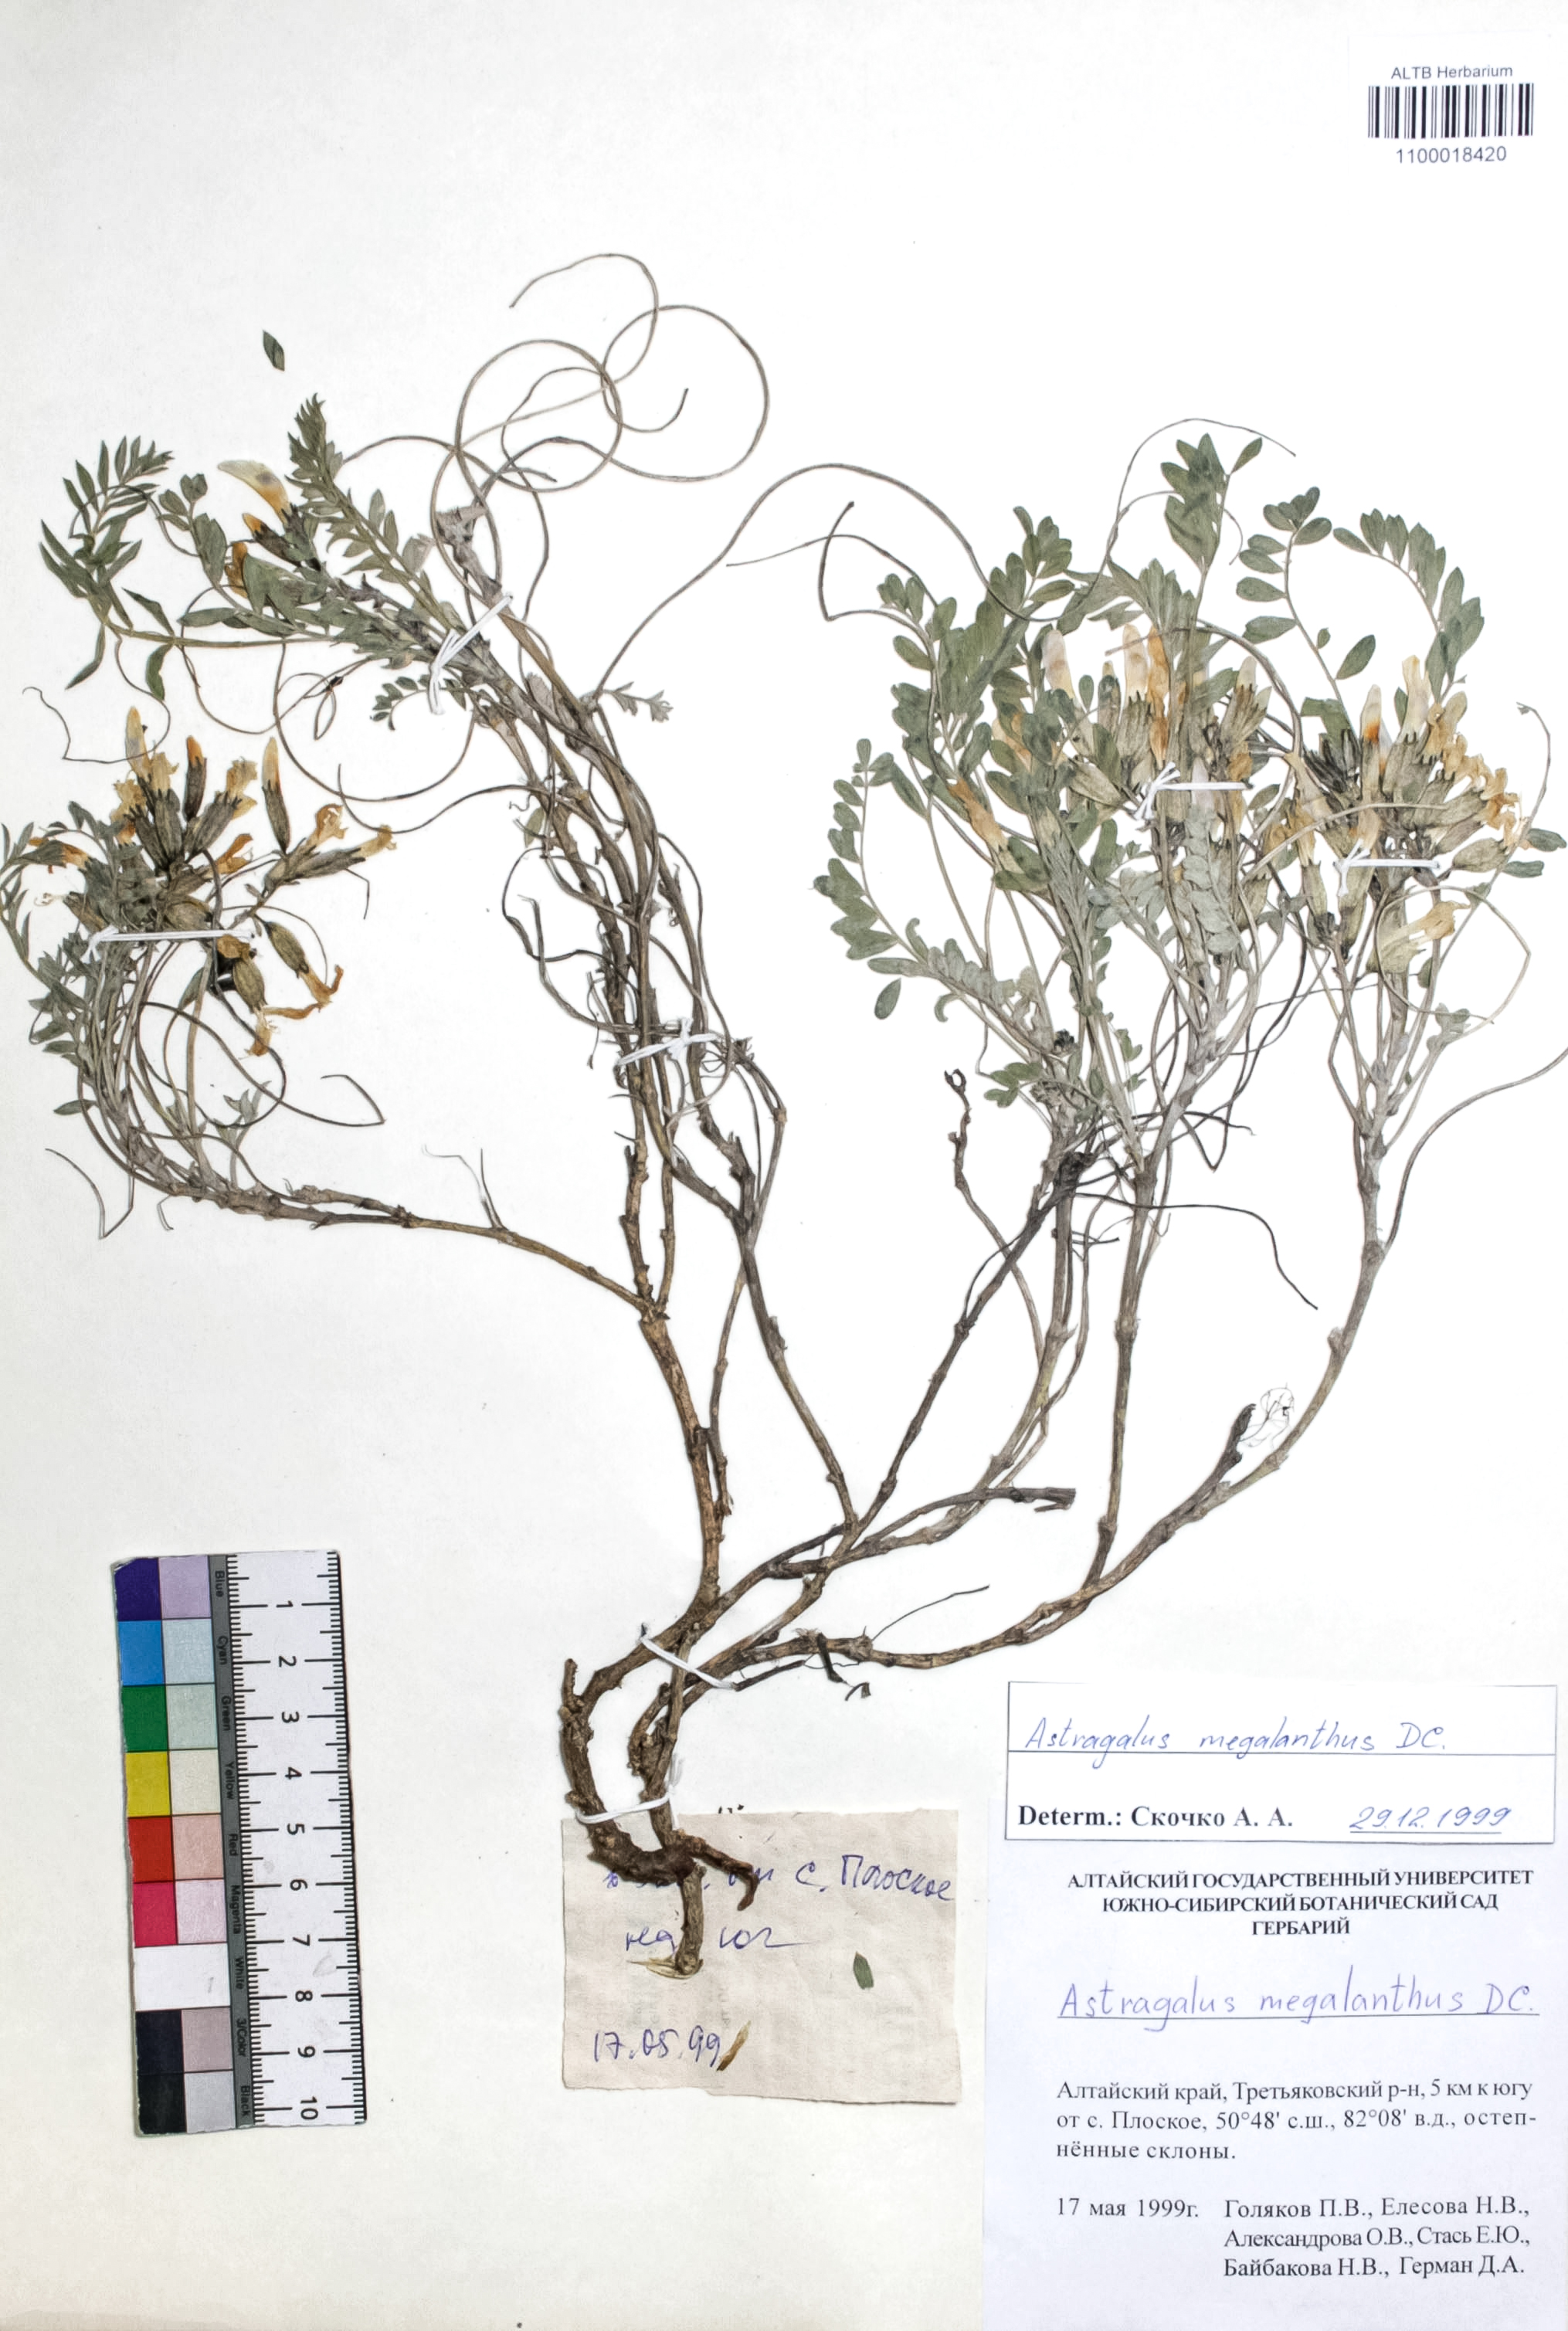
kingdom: Plantae
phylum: Tracheophyta
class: Magnoliopsida
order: Fabales
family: Fabaceae
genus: Astragalus
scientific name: Astragalus leptostachys
